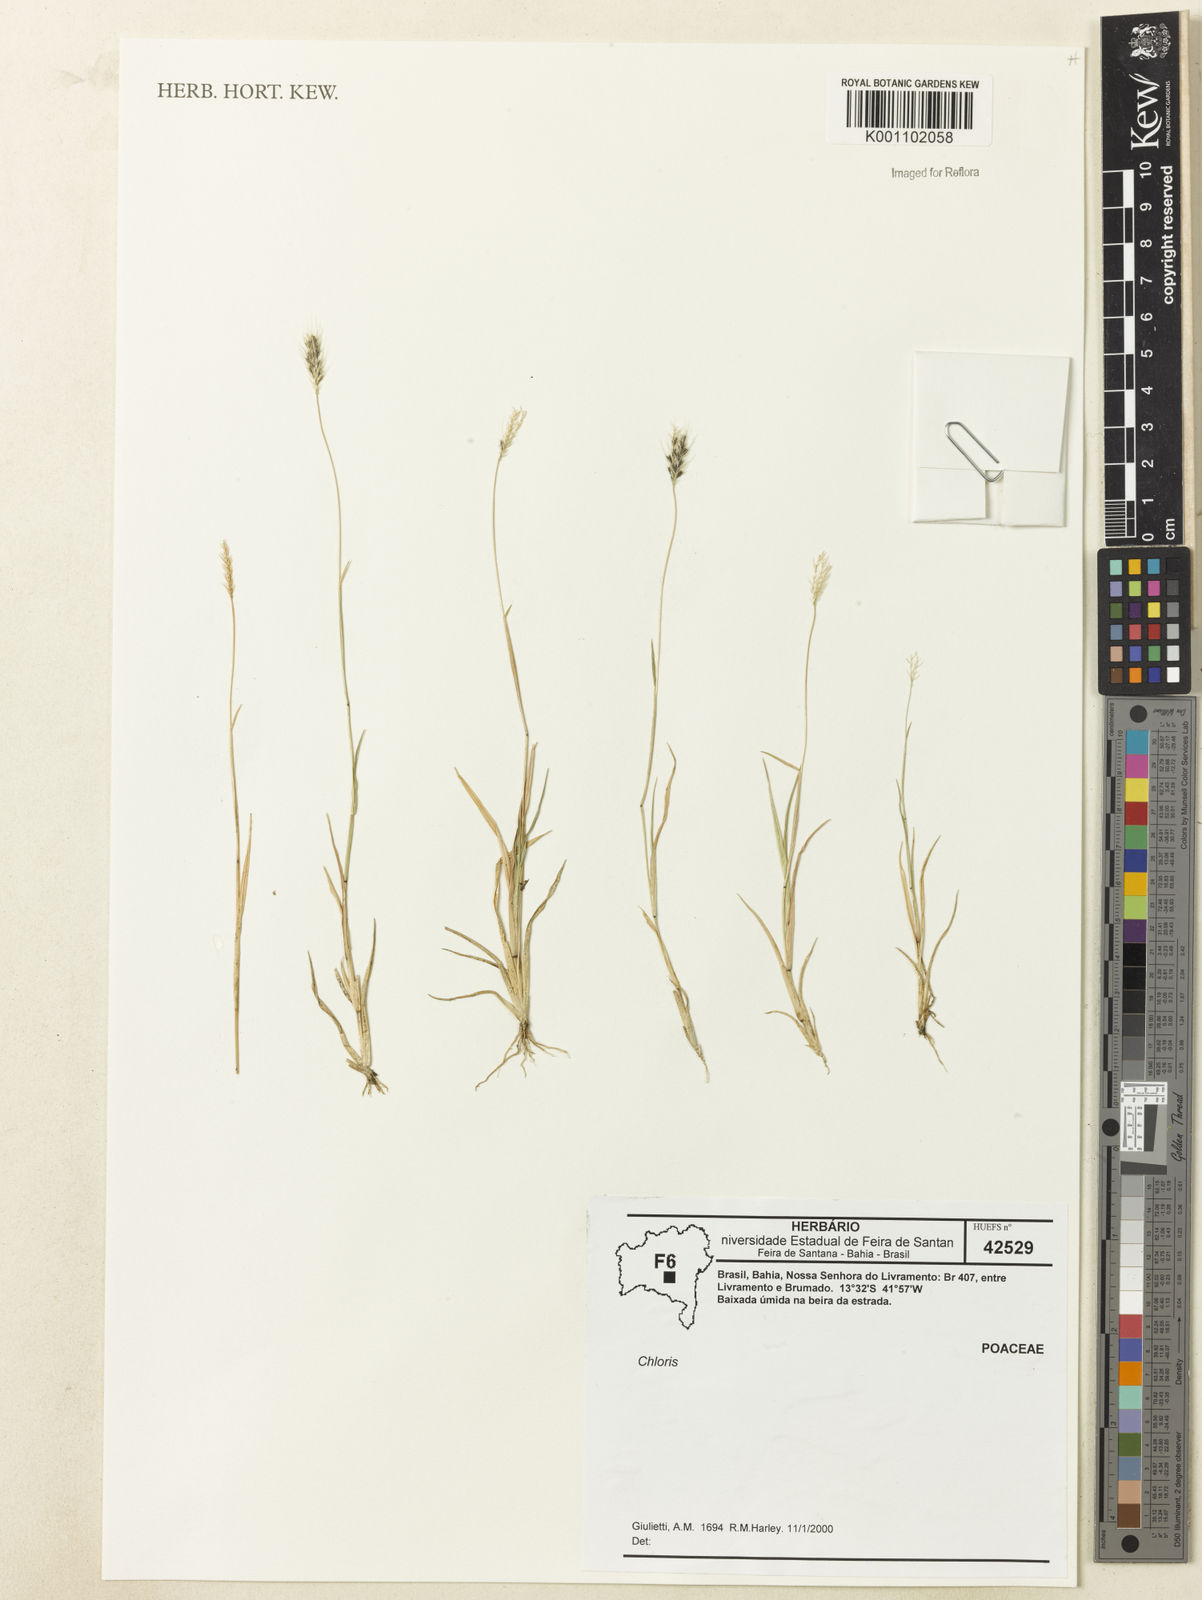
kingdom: Plantae
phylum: Tracheophyta
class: Liliopsida
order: Poales
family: Poaceae
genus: Chloris
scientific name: Chloris
